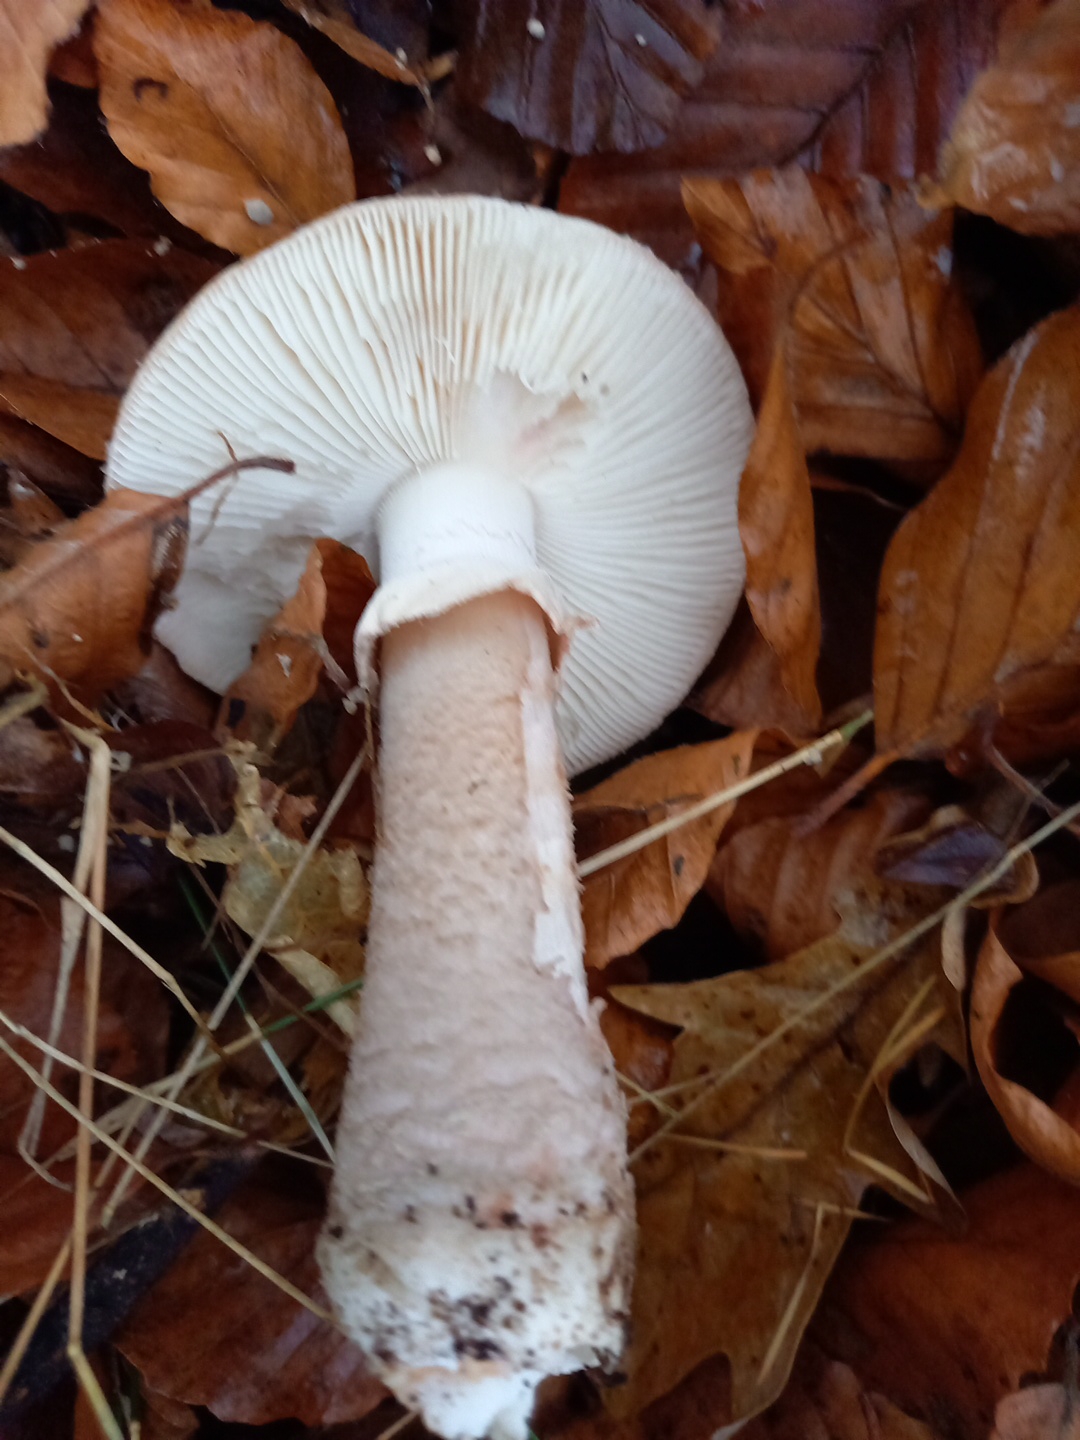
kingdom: Fungi
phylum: Basidiomycota
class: Agaricomycetes
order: Agaricales
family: Amanitaceae
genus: Amanita
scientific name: Amanita rubescens
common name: rødmende fluesvamp
